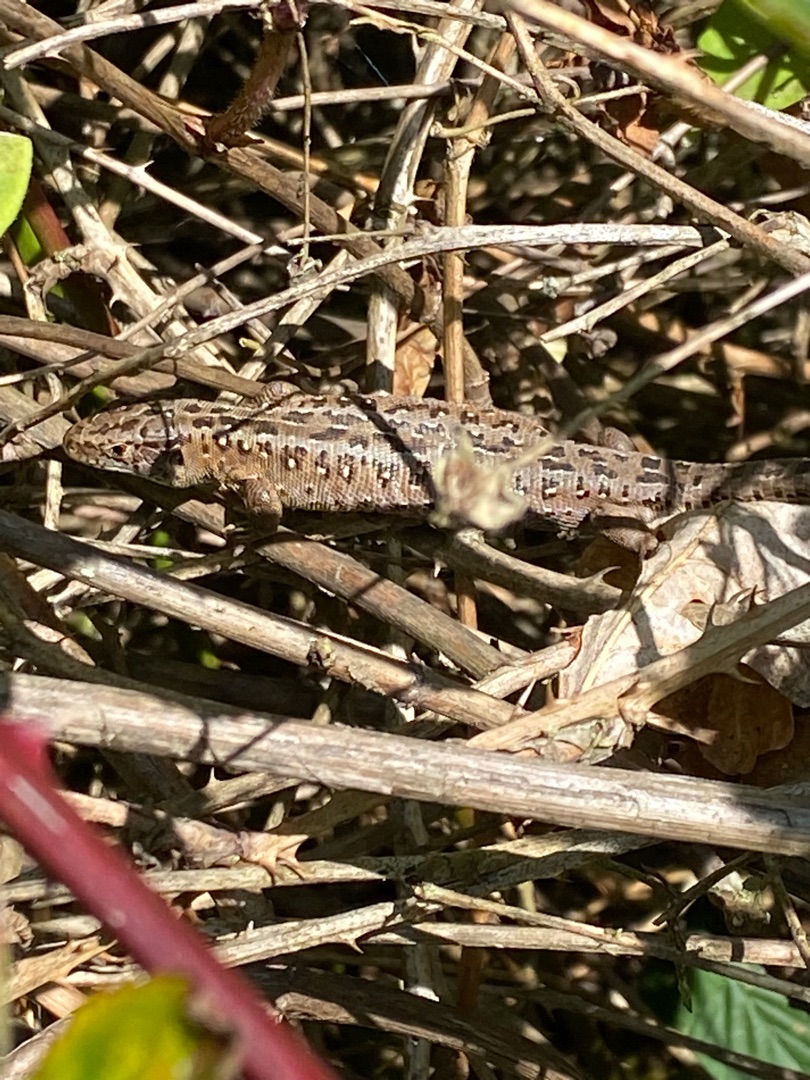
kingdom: Animalia
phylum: Chordata
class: Squamata
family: Lacertidae
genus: Lacerta
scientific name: Lacerta agilis
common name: Markfirben
